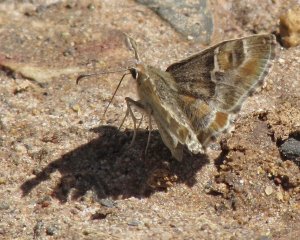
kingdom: Animalia
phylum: Arthropoda
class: Insecta
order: Lepidoptera
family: Hesperiidae
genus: Systasea
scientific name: Systasea zampa
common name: Arizona Powdered-Skipper
